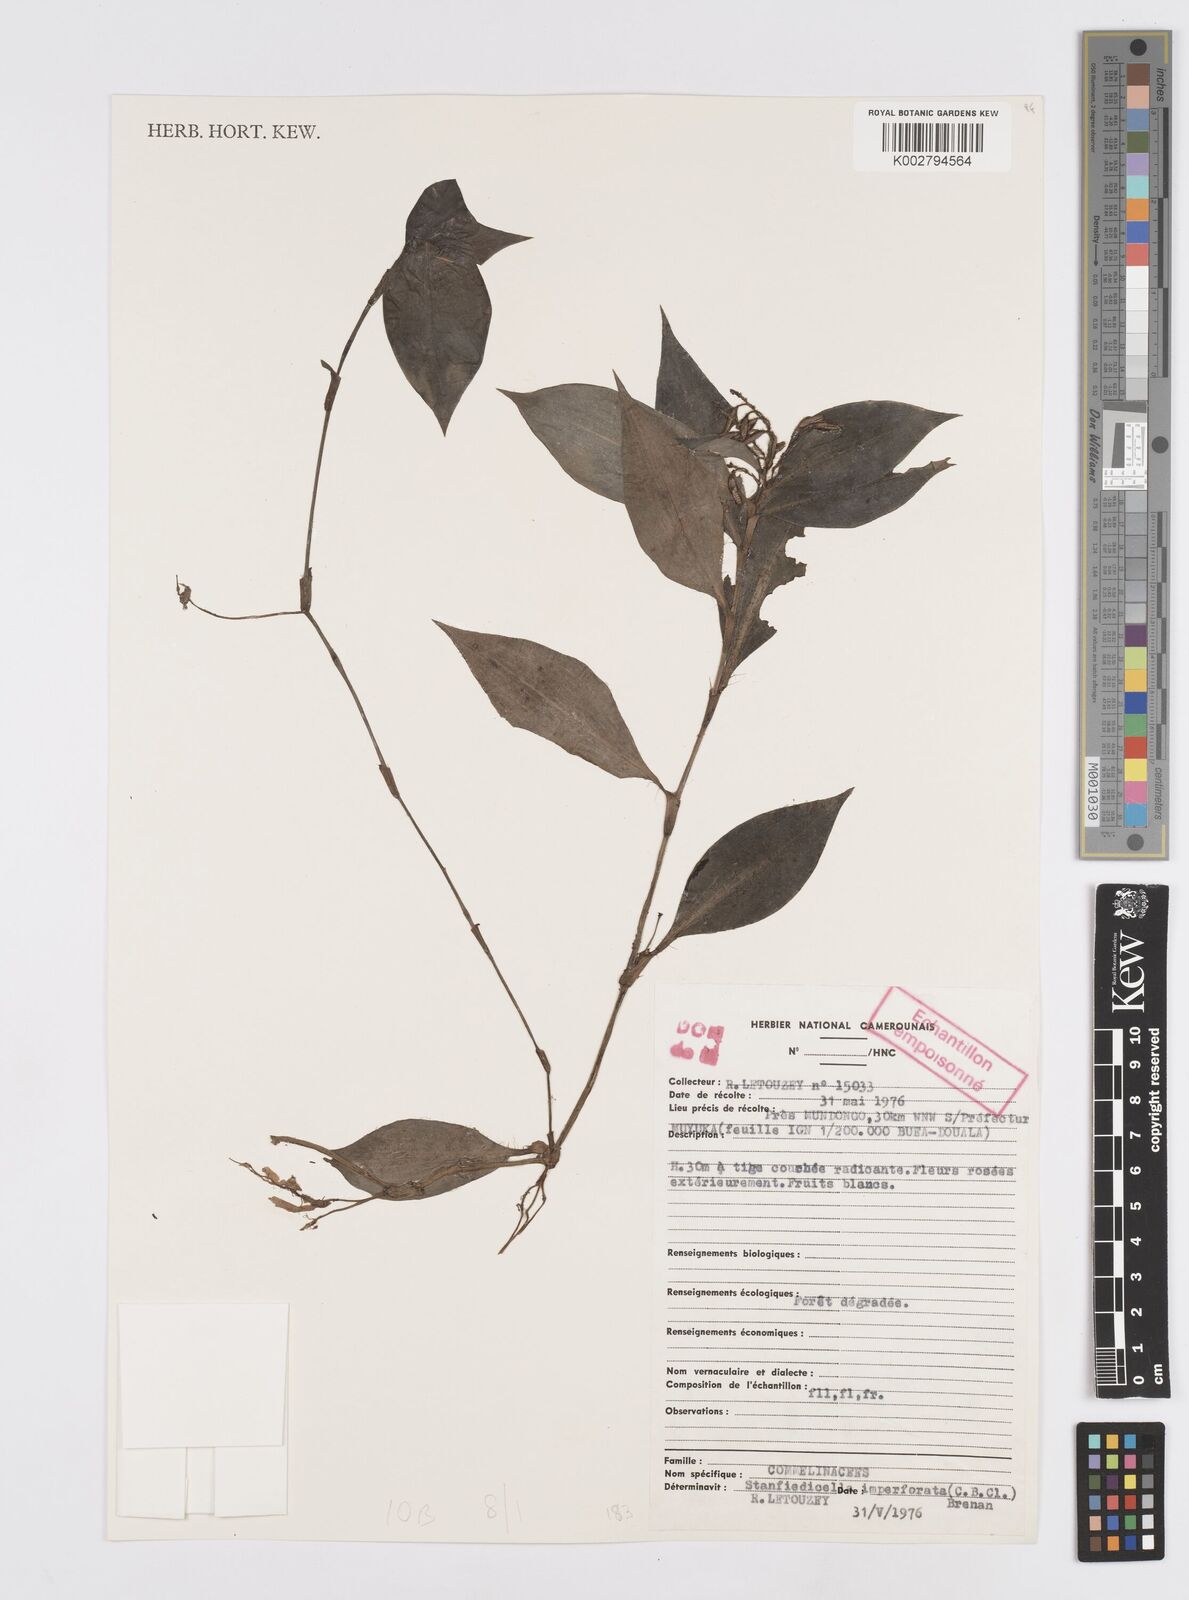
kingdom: Plantae
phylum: Tracheophyta
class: Liliopsida
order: Commelinales
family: Commelinaceae
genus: Stanfieldiella
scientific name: Stanfieldiella imperforata
